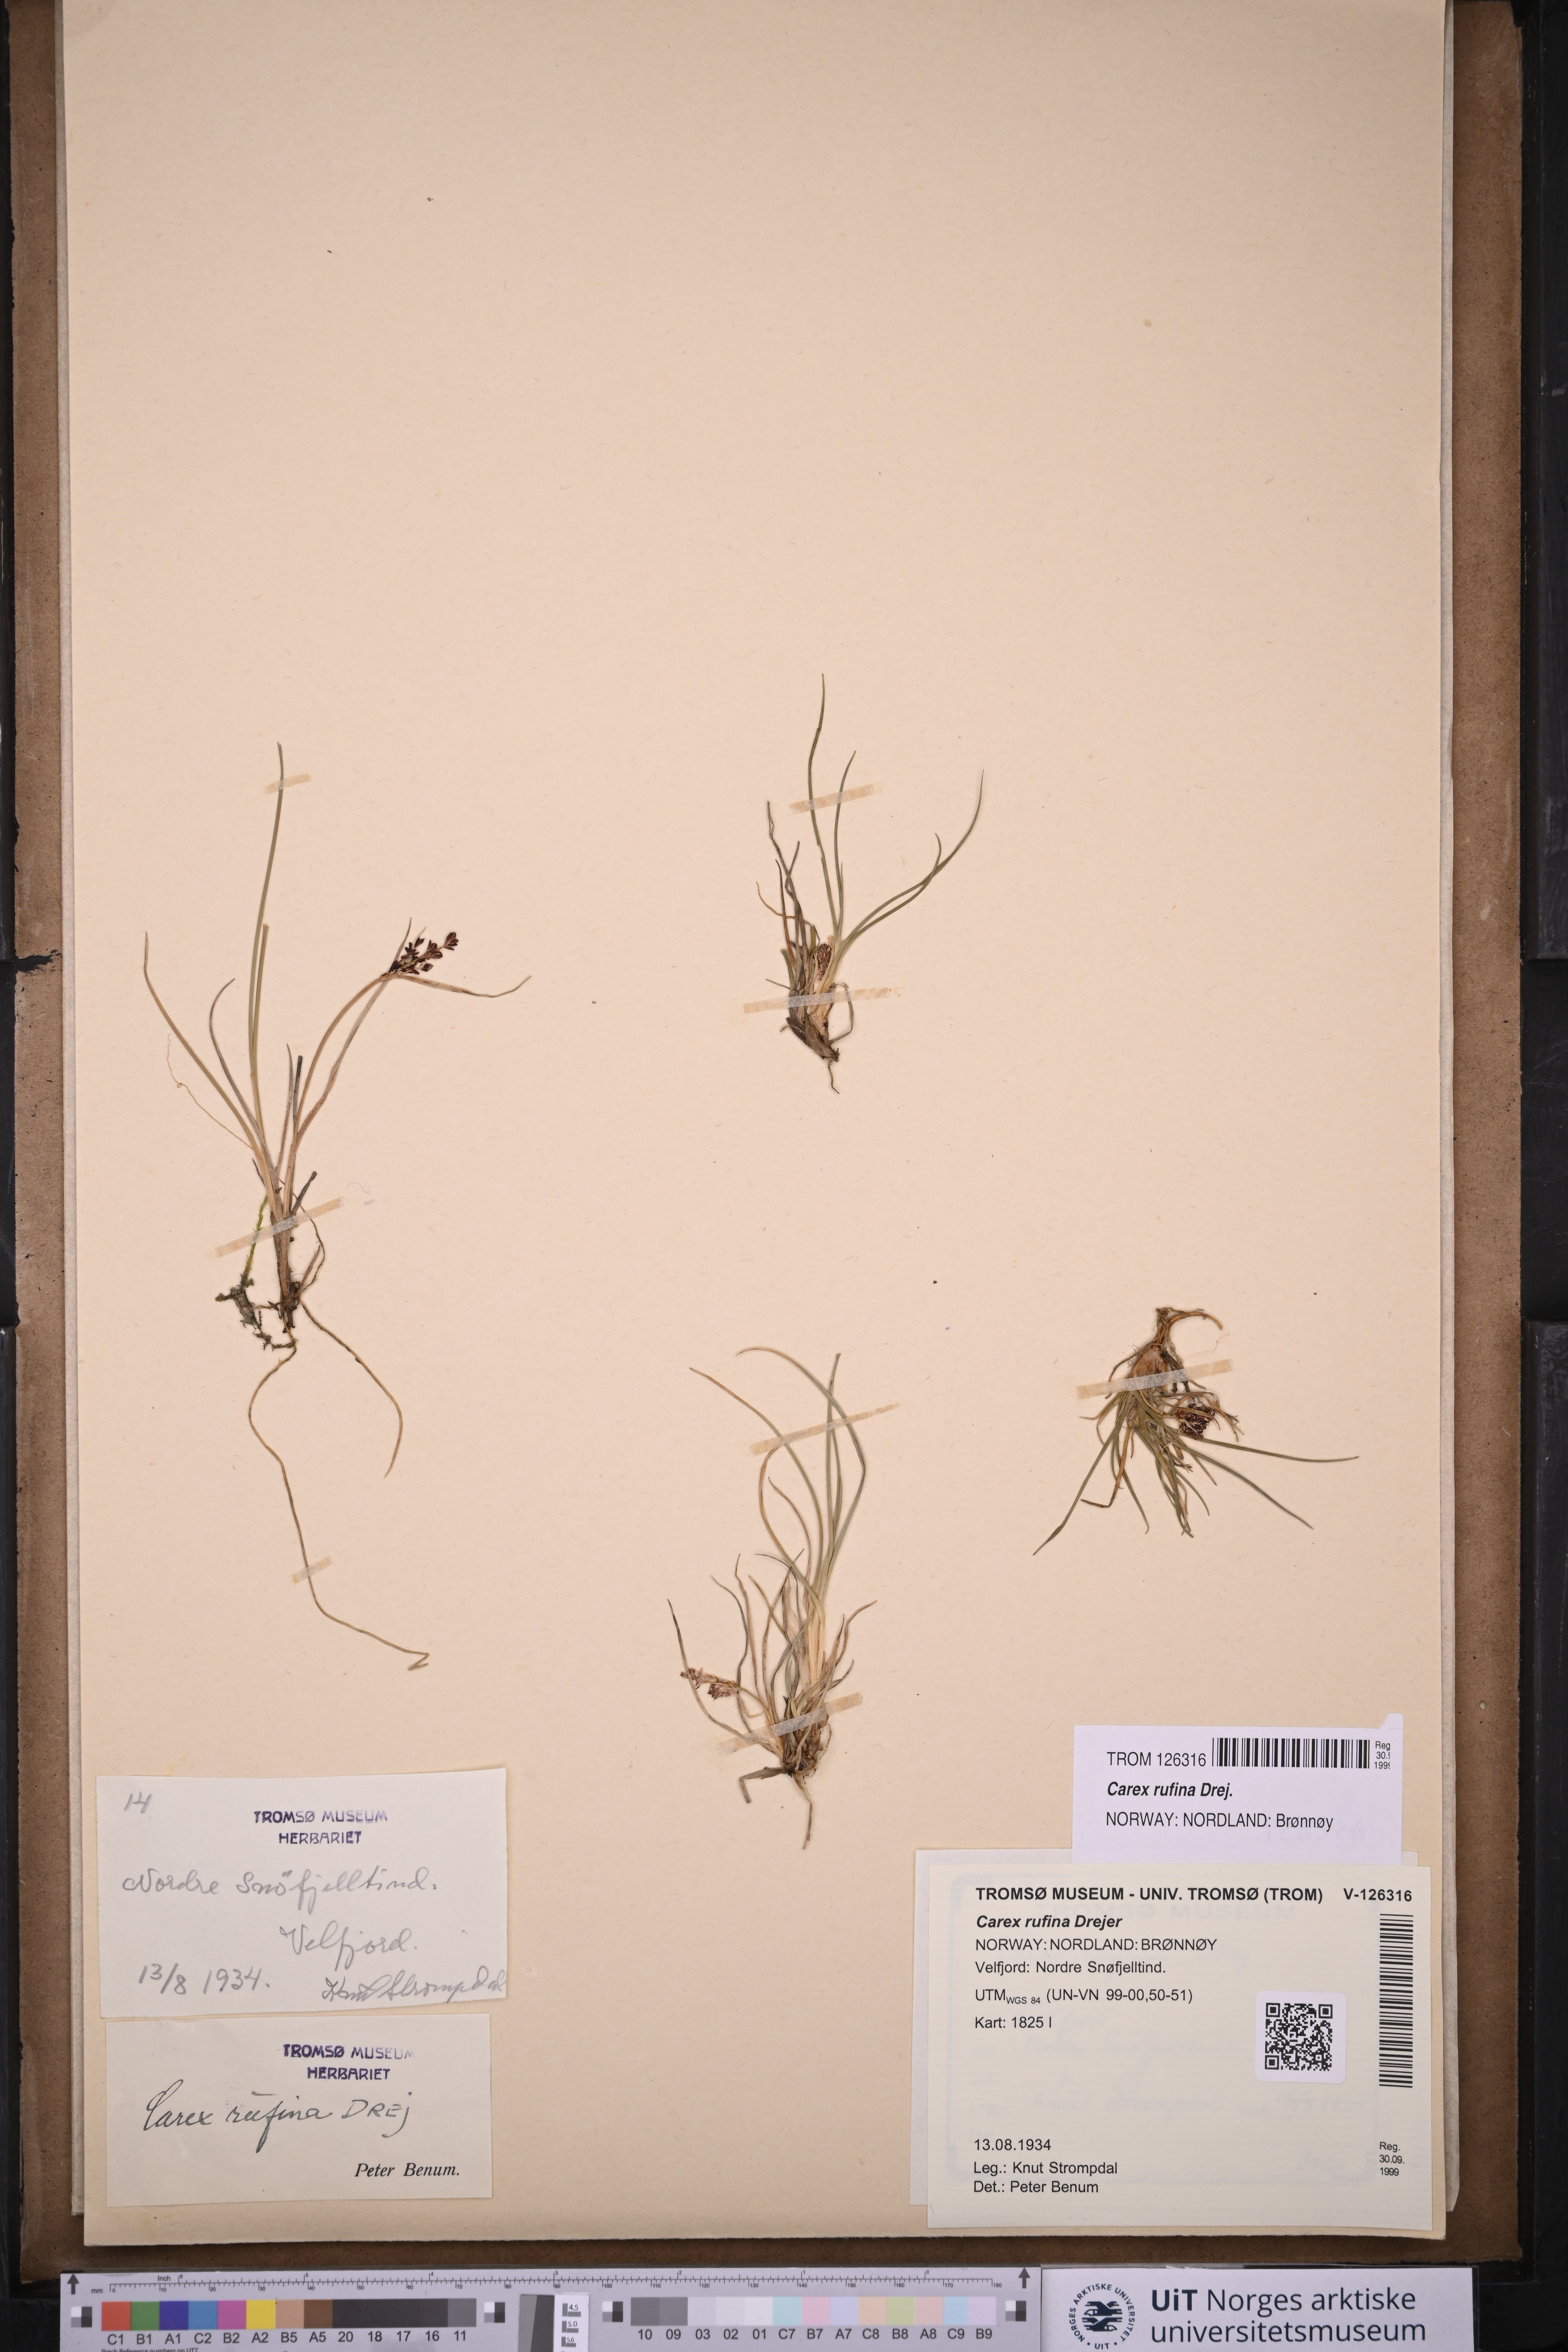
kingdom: Plantae
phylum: Tracheophyta
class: Liliopsida
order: Poales
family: Cyperaceae
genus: Carex
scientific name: Carex rufina
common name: Reddish sedge
